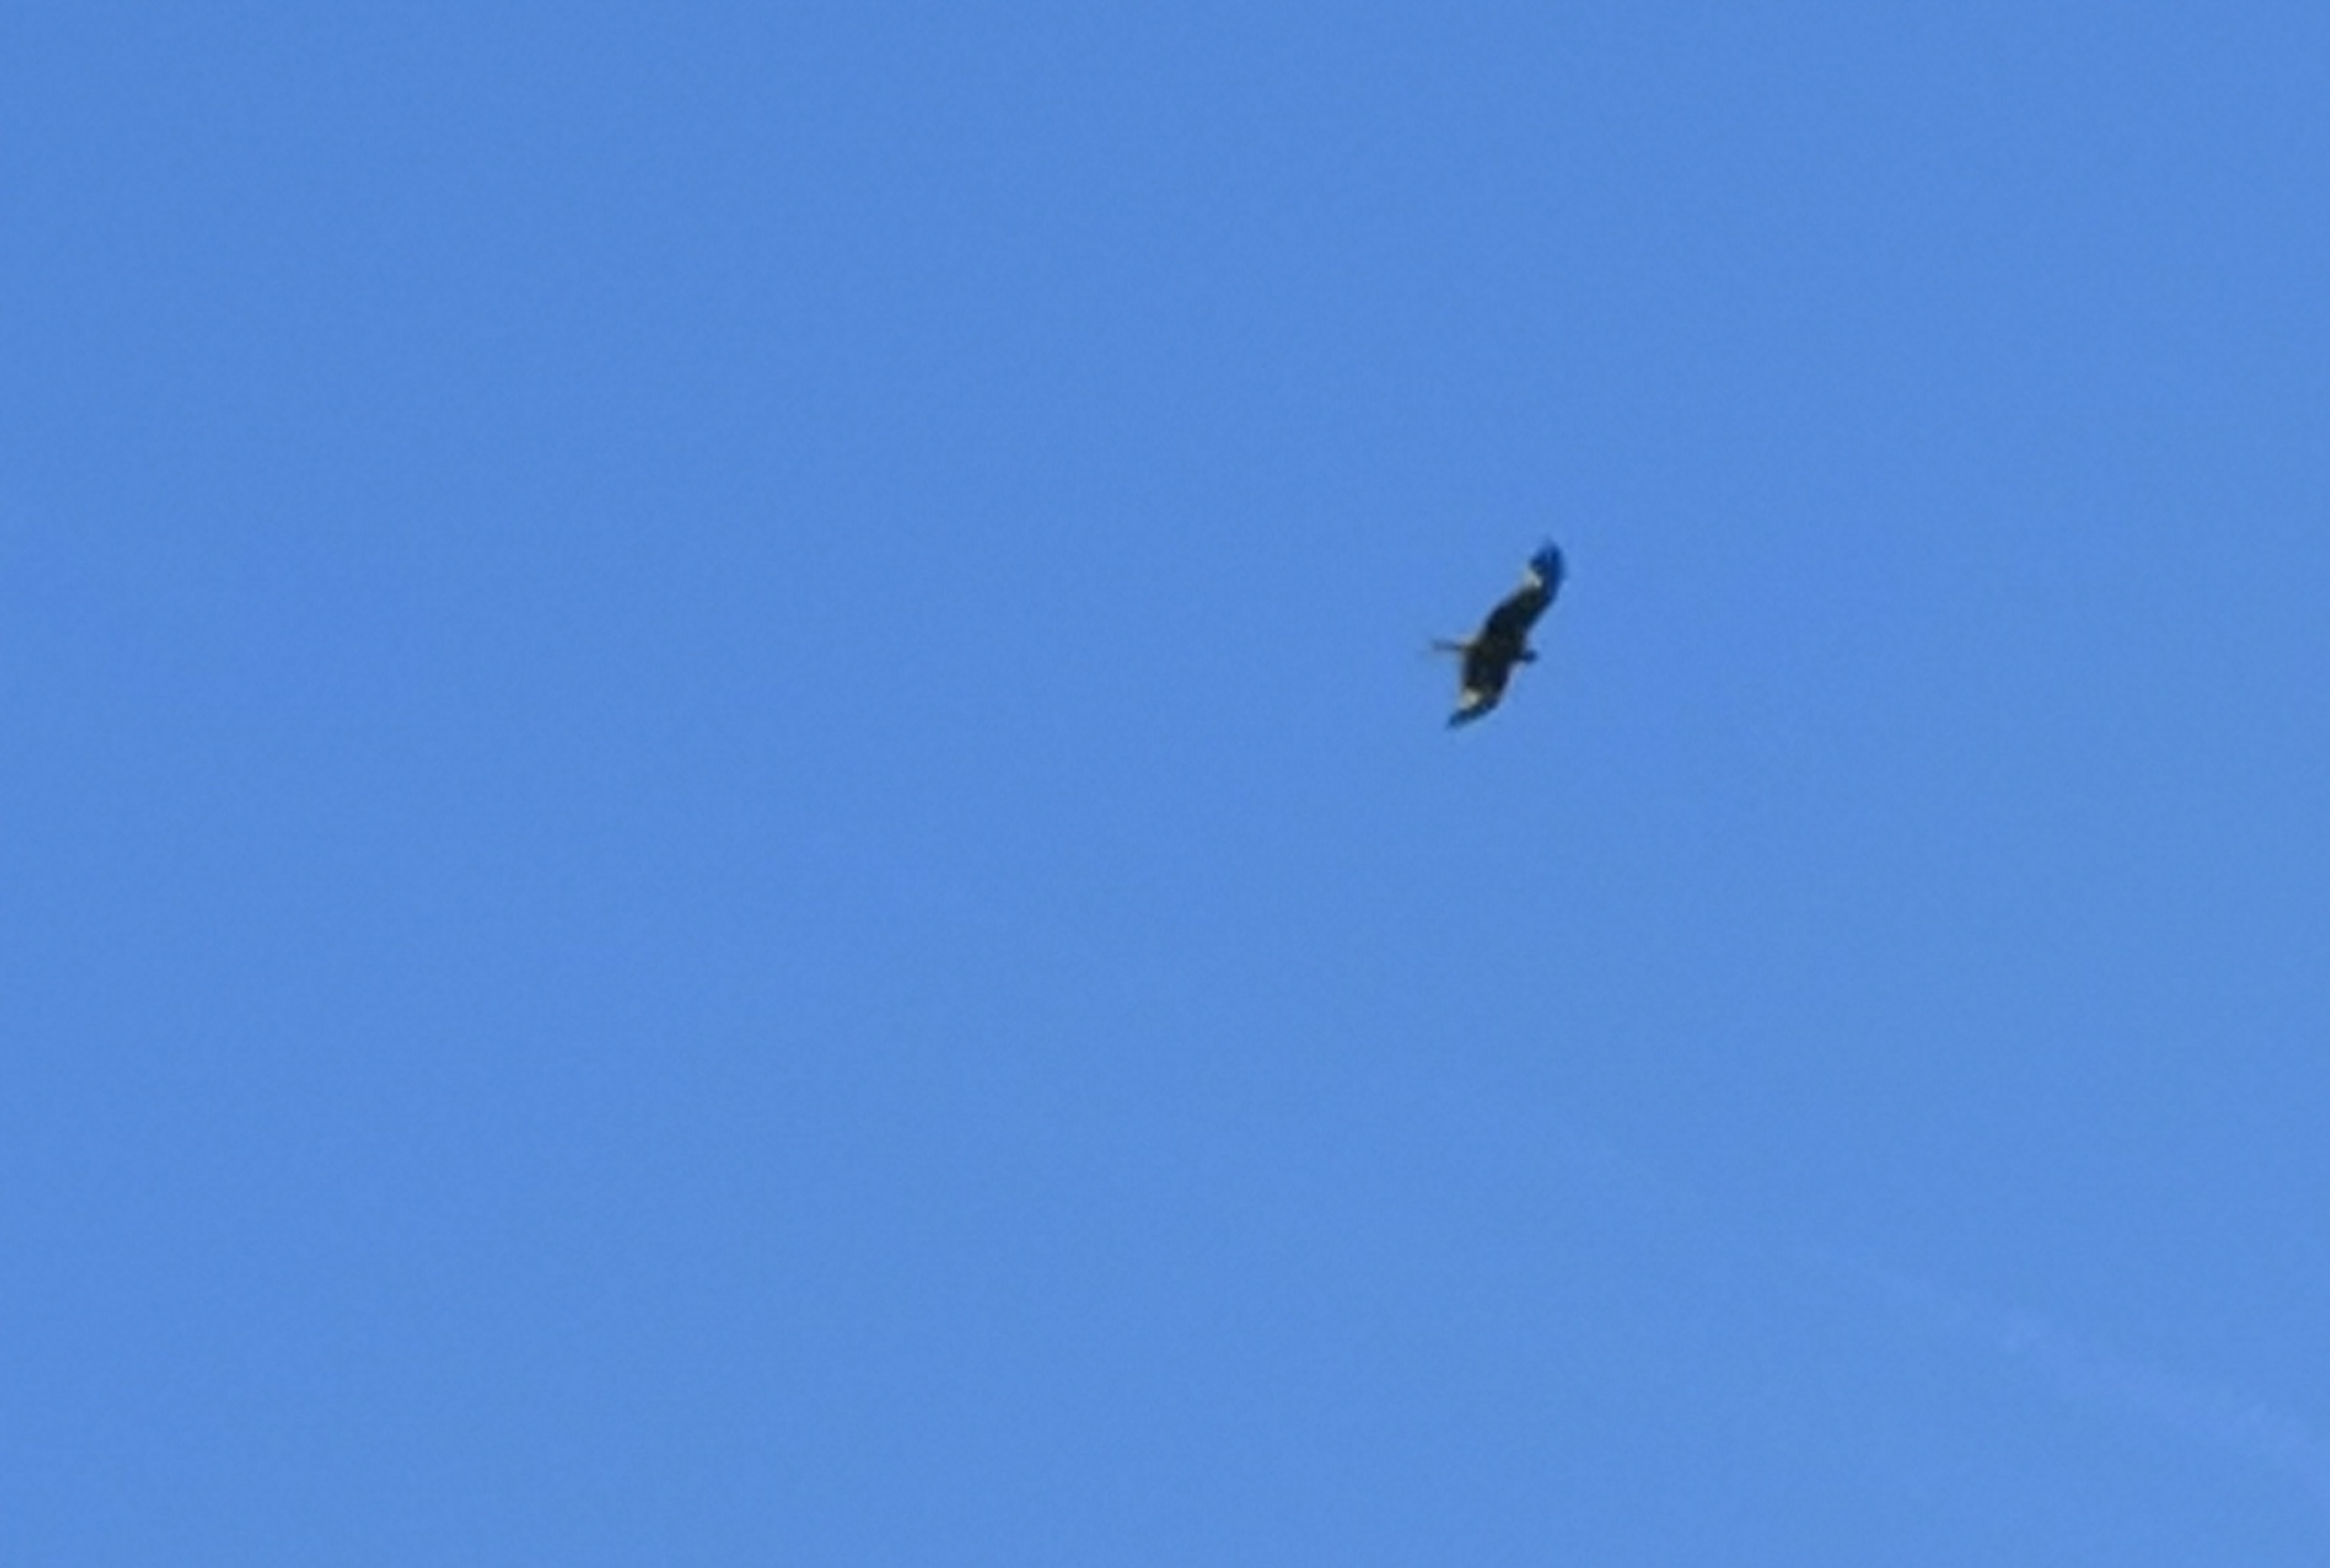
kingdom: Animalia
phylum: Chordata
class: Aves
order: Accipitriformes
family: Accipitridae
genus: Milvus
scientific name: Milvus milvus
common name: Rød glente
